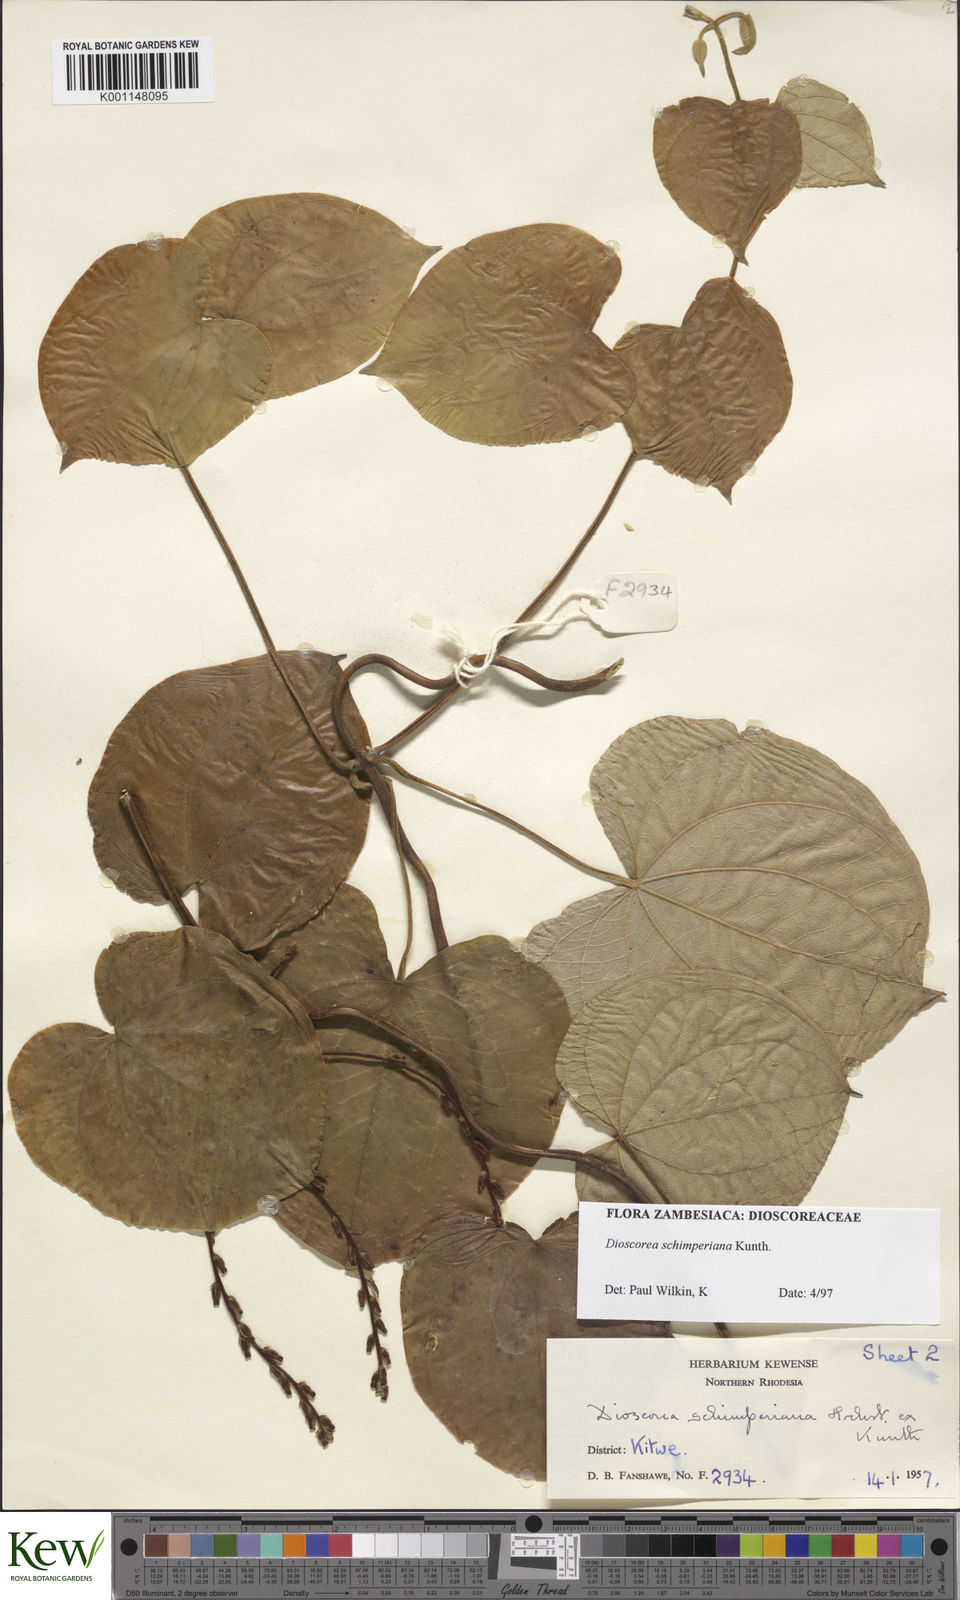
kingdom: Plantae
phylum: Tracheophyta
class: Liliopsida
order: Dioscoreales
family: Dioscoreaceae
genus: Dioscorea
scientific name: Dioscorea schimperiana
